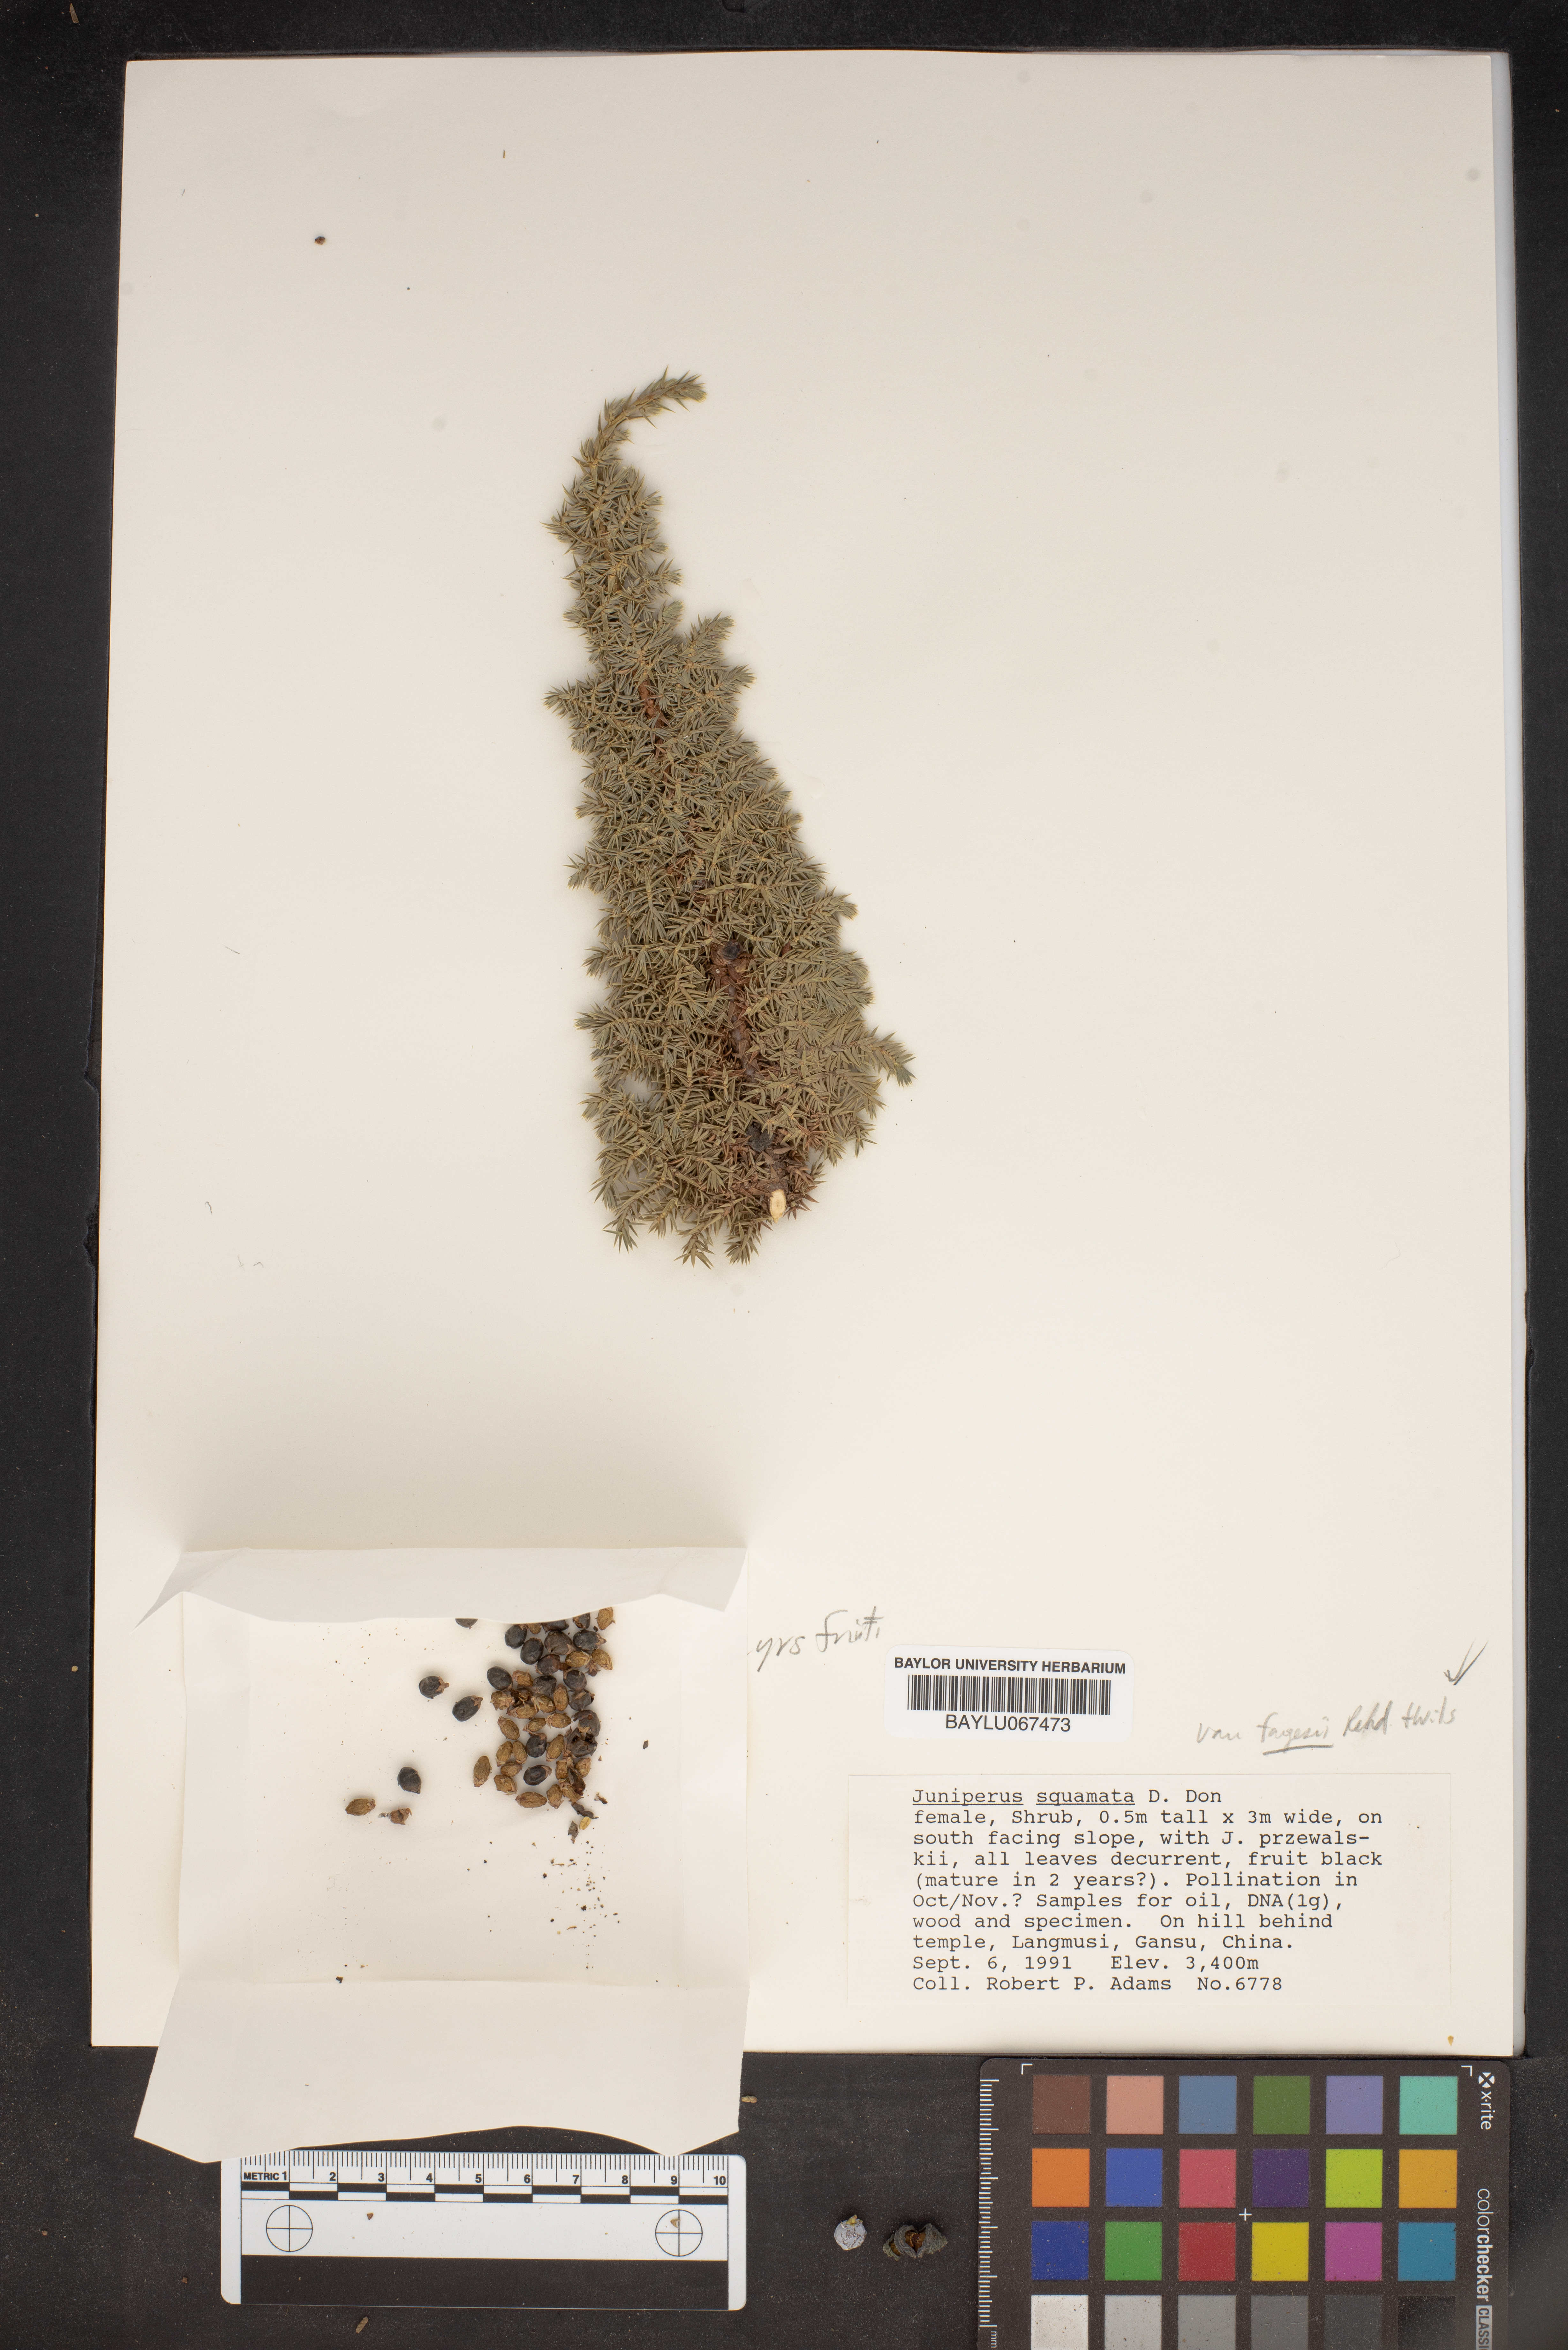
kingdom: Plantae
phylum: Tracheophyta
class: Pinopsida
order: Pinales
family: Cupressaceae
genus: Juniperus
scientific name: Juniperus squamata
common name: Flaky juniper
